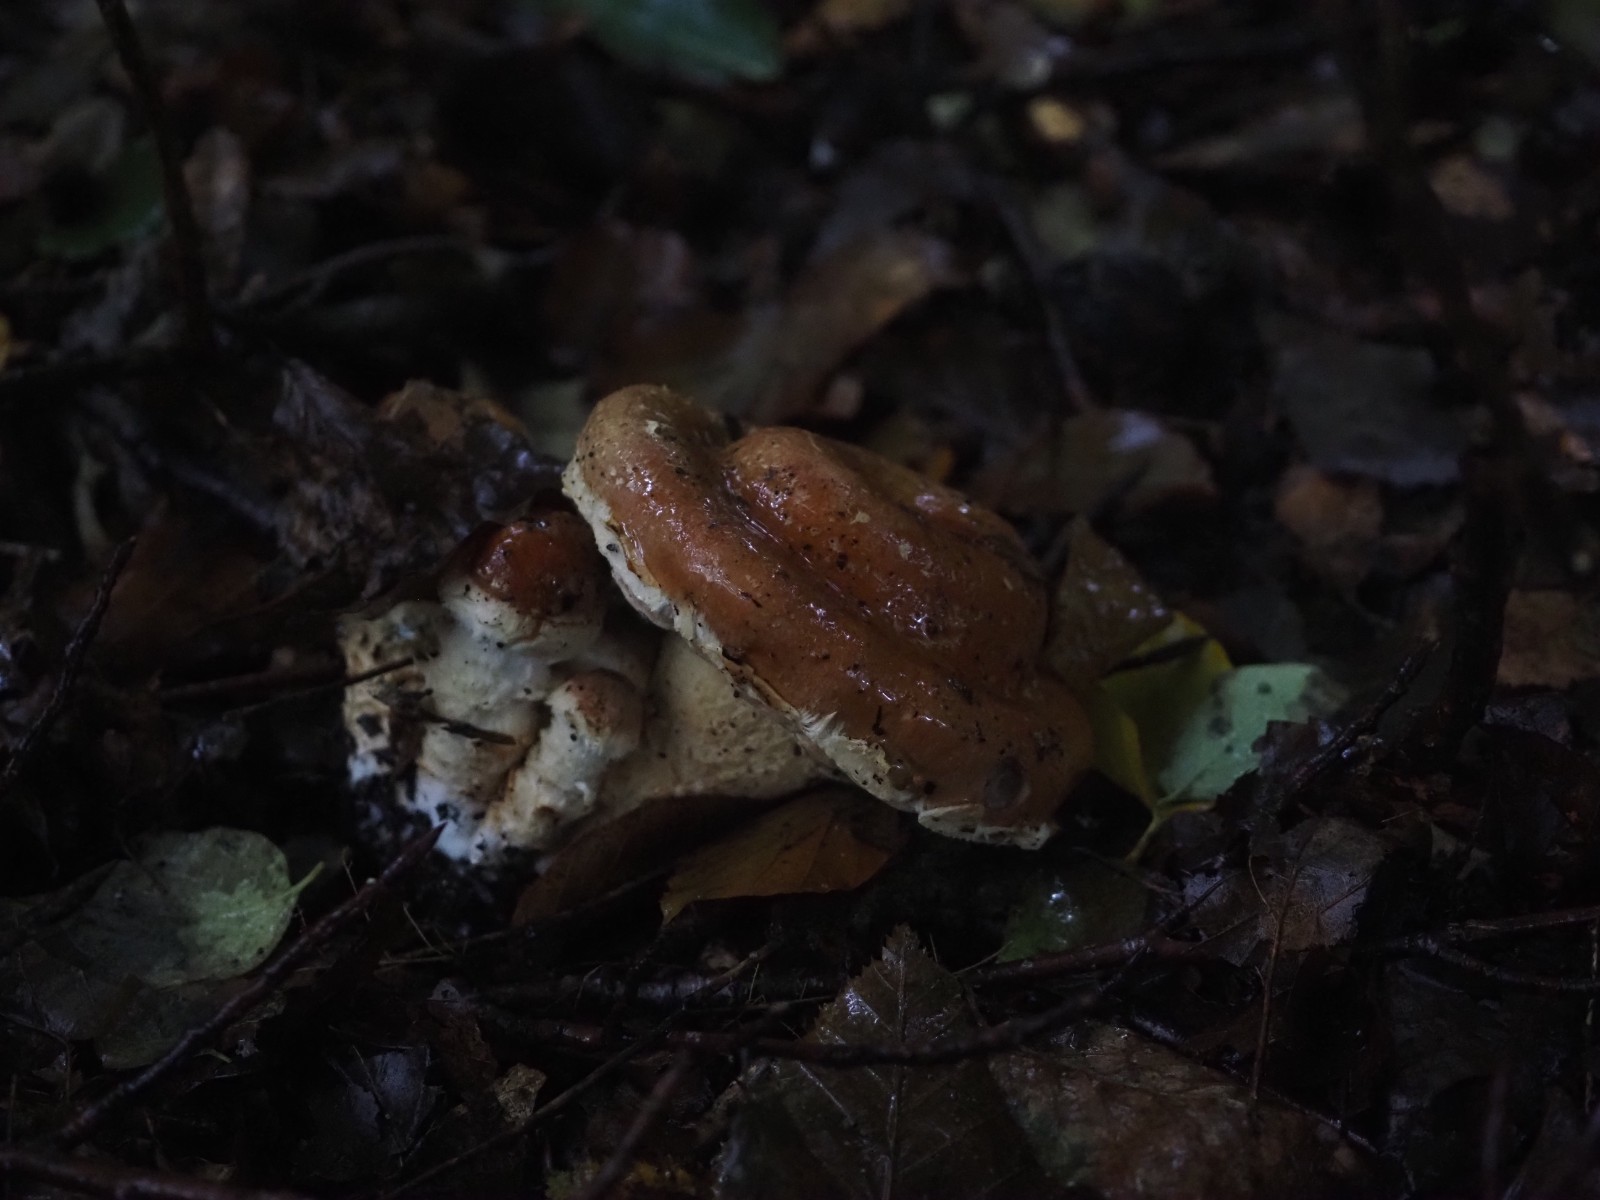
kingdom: Fungi
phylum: Basidiomycota
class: Agaricomycetes
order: Agaricales
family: Cortinariaceae
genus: Phlegmacium
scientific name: Phlegmacium vulpinum
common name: ringbæltet slørhat
